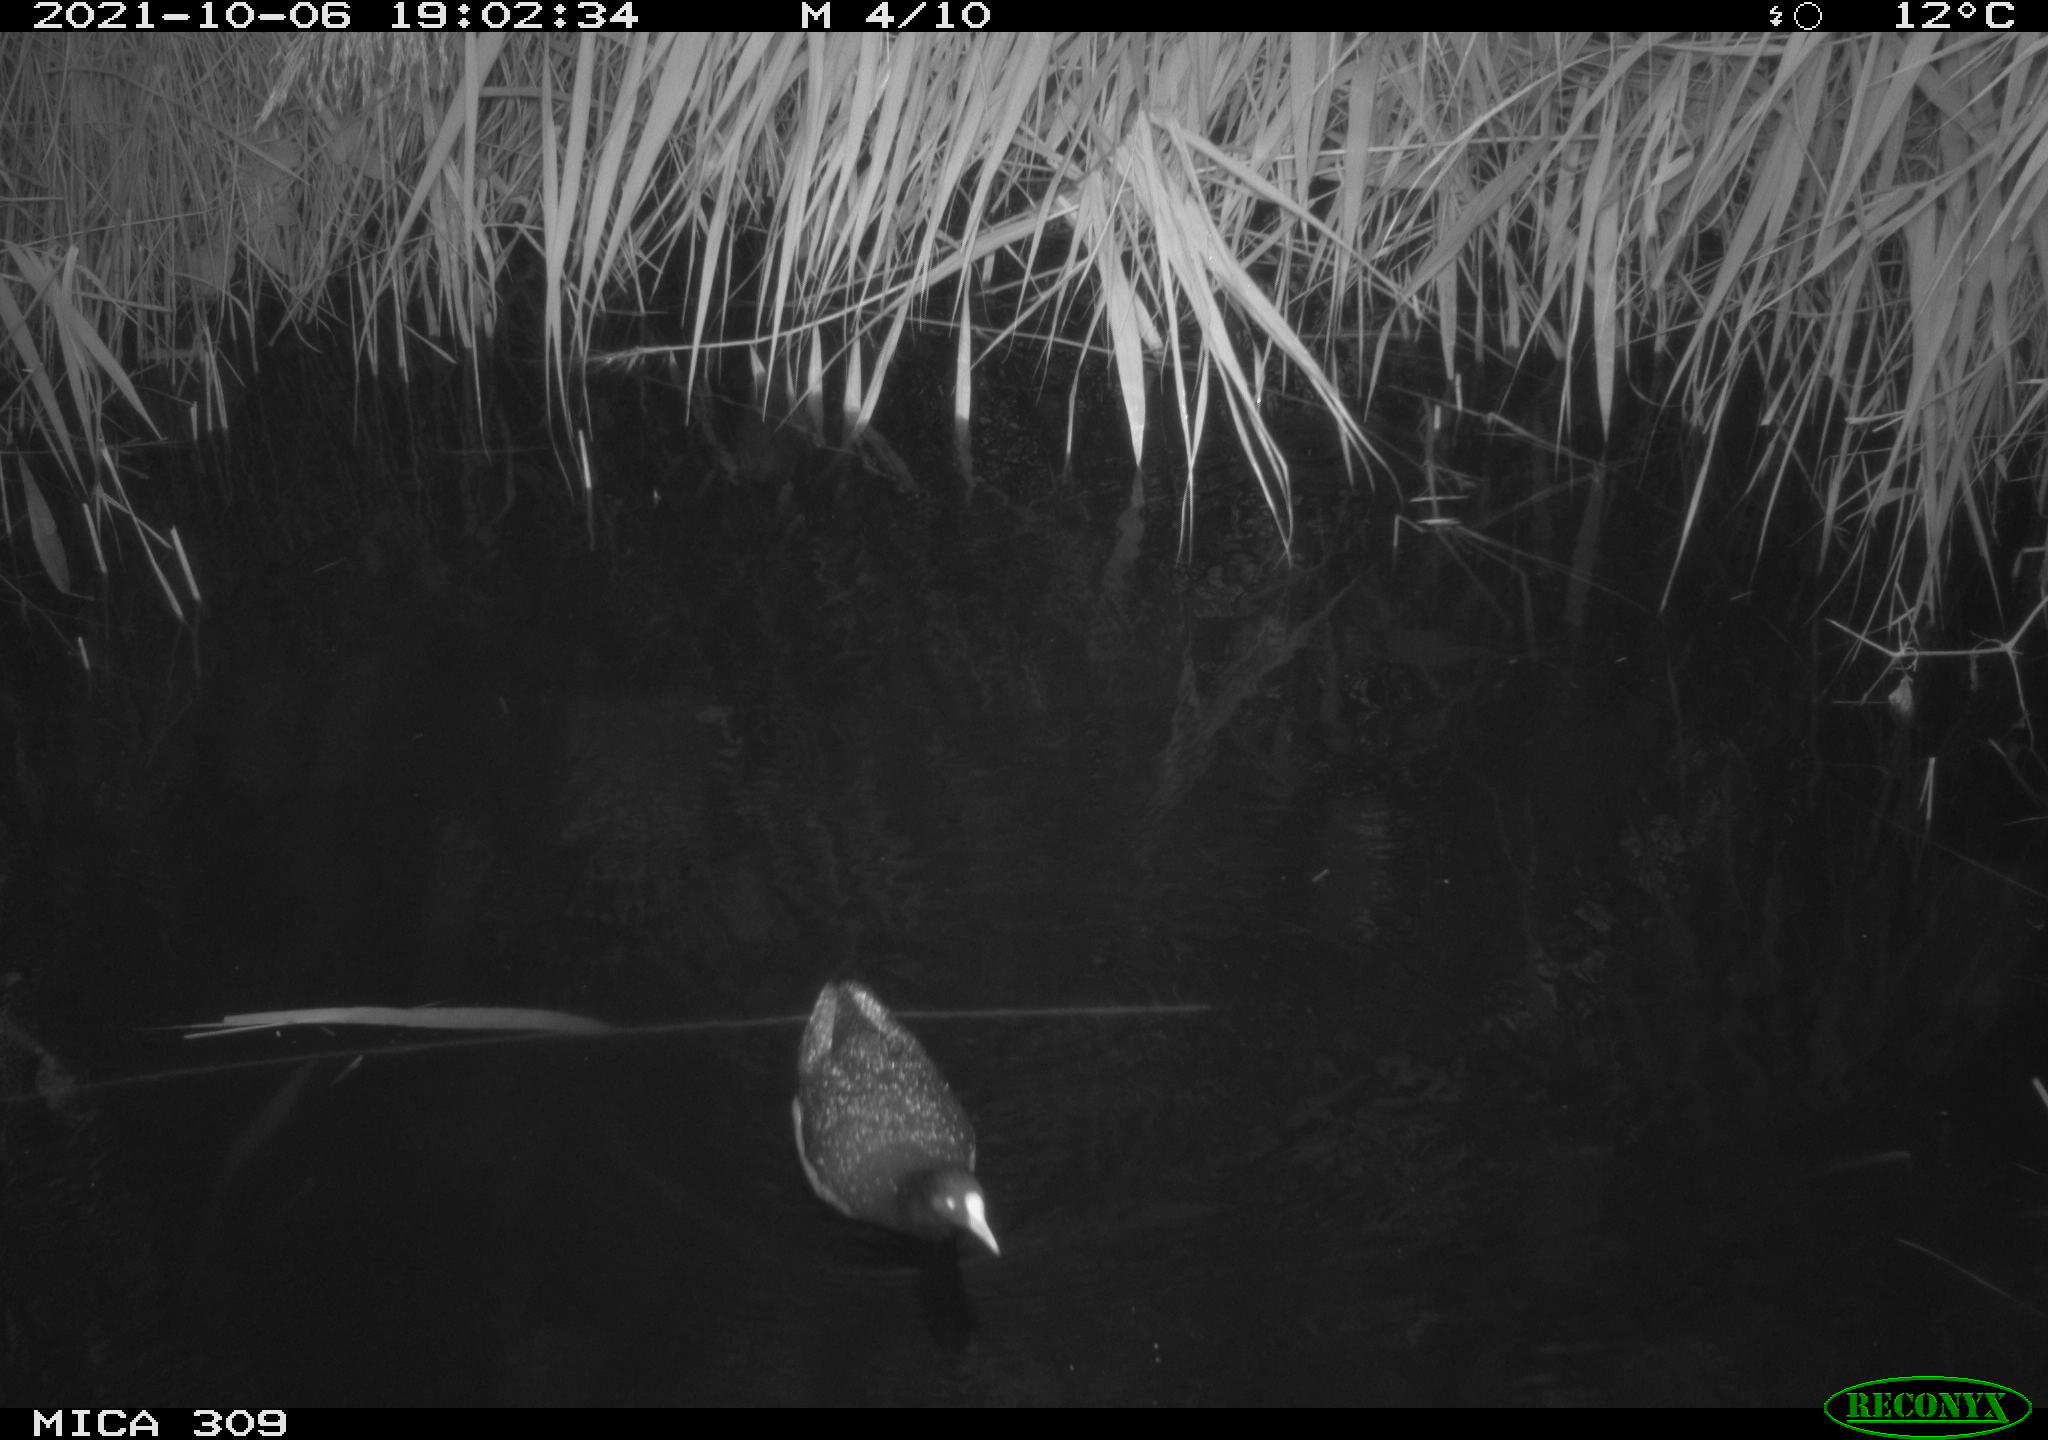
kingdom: Animalia
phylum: Chordata
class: Aves
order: Gruiformes
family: Rallidae
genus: Gallinula
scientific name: Gallinula chloropus
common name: Common moorhen
